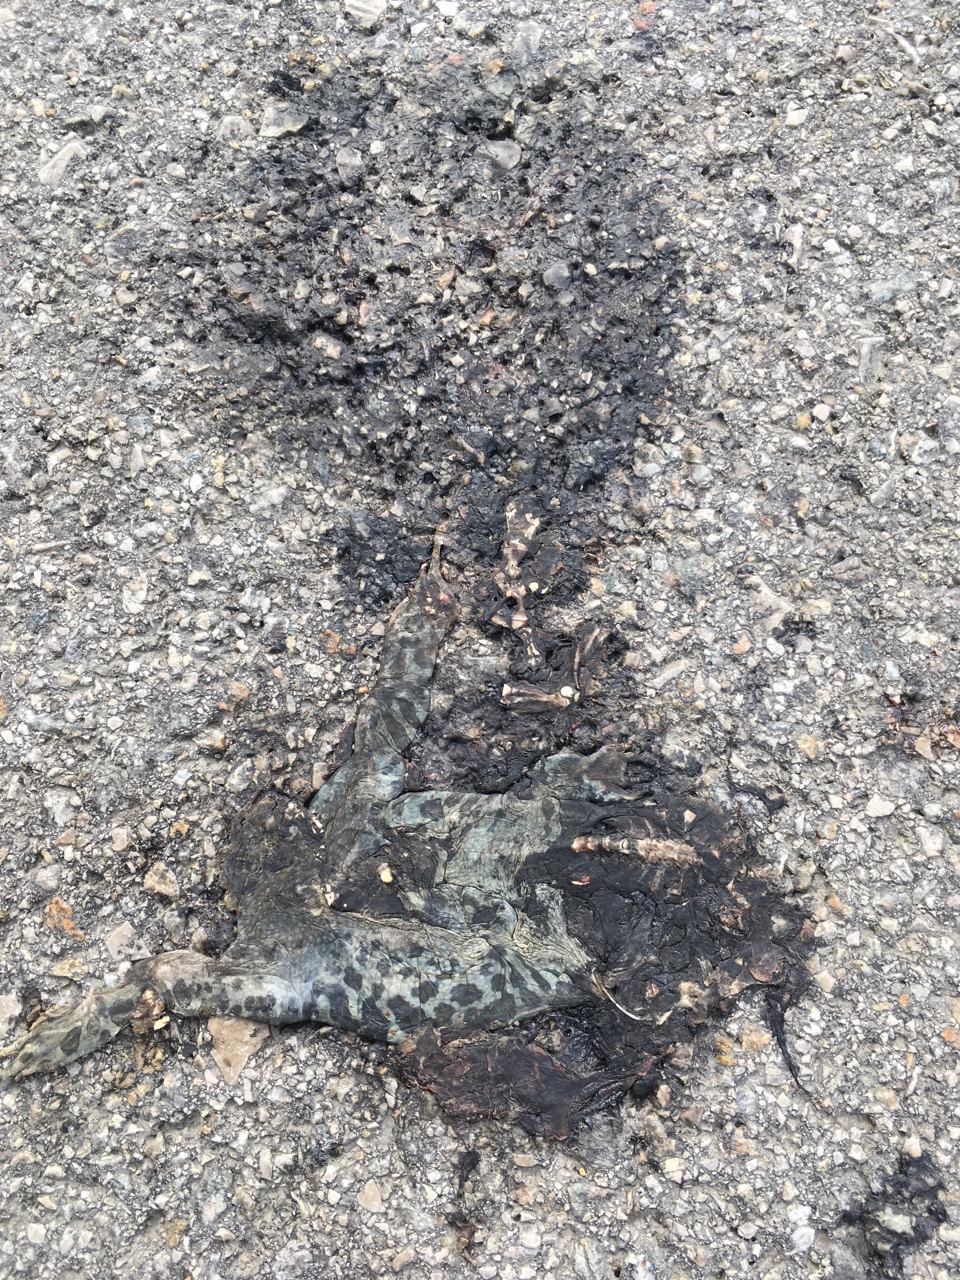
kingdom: Animalia
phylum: Chordata
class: Amphibia
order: Anura
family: Bufonidae
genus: Bufotes
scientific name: Bufotes viridis
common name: European green toad
